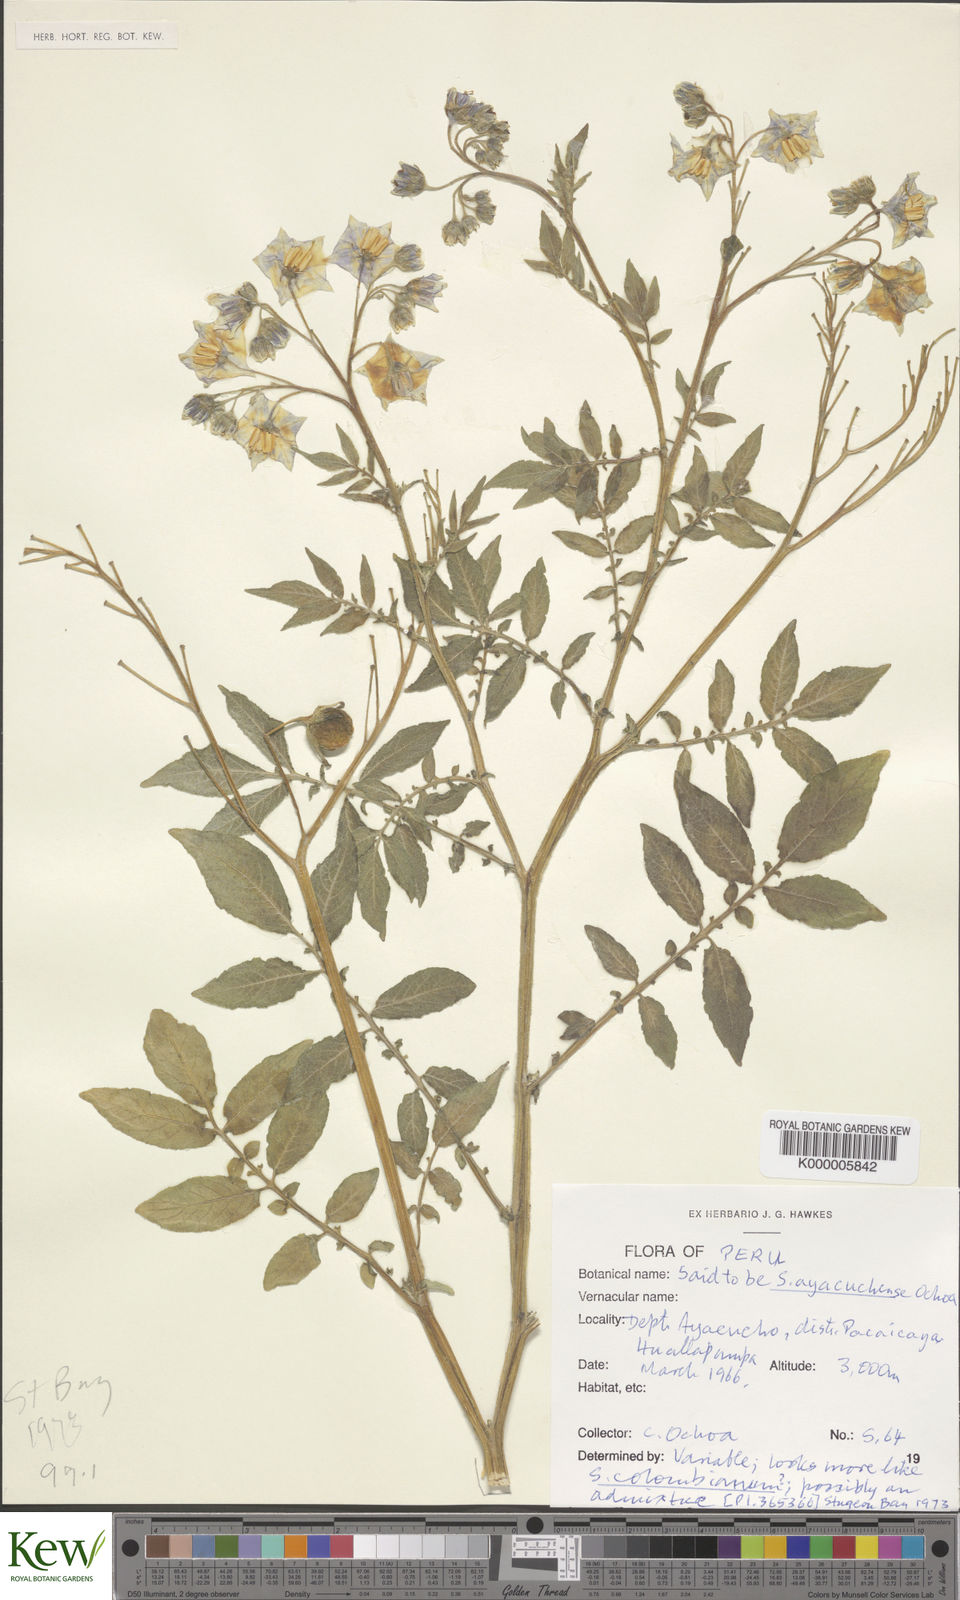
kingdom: Plantae
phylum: Tracheophyta
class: Magnoliopsida
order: Solanales
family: Solanaceae
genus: Solanum
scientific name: Solanum candolleanum
